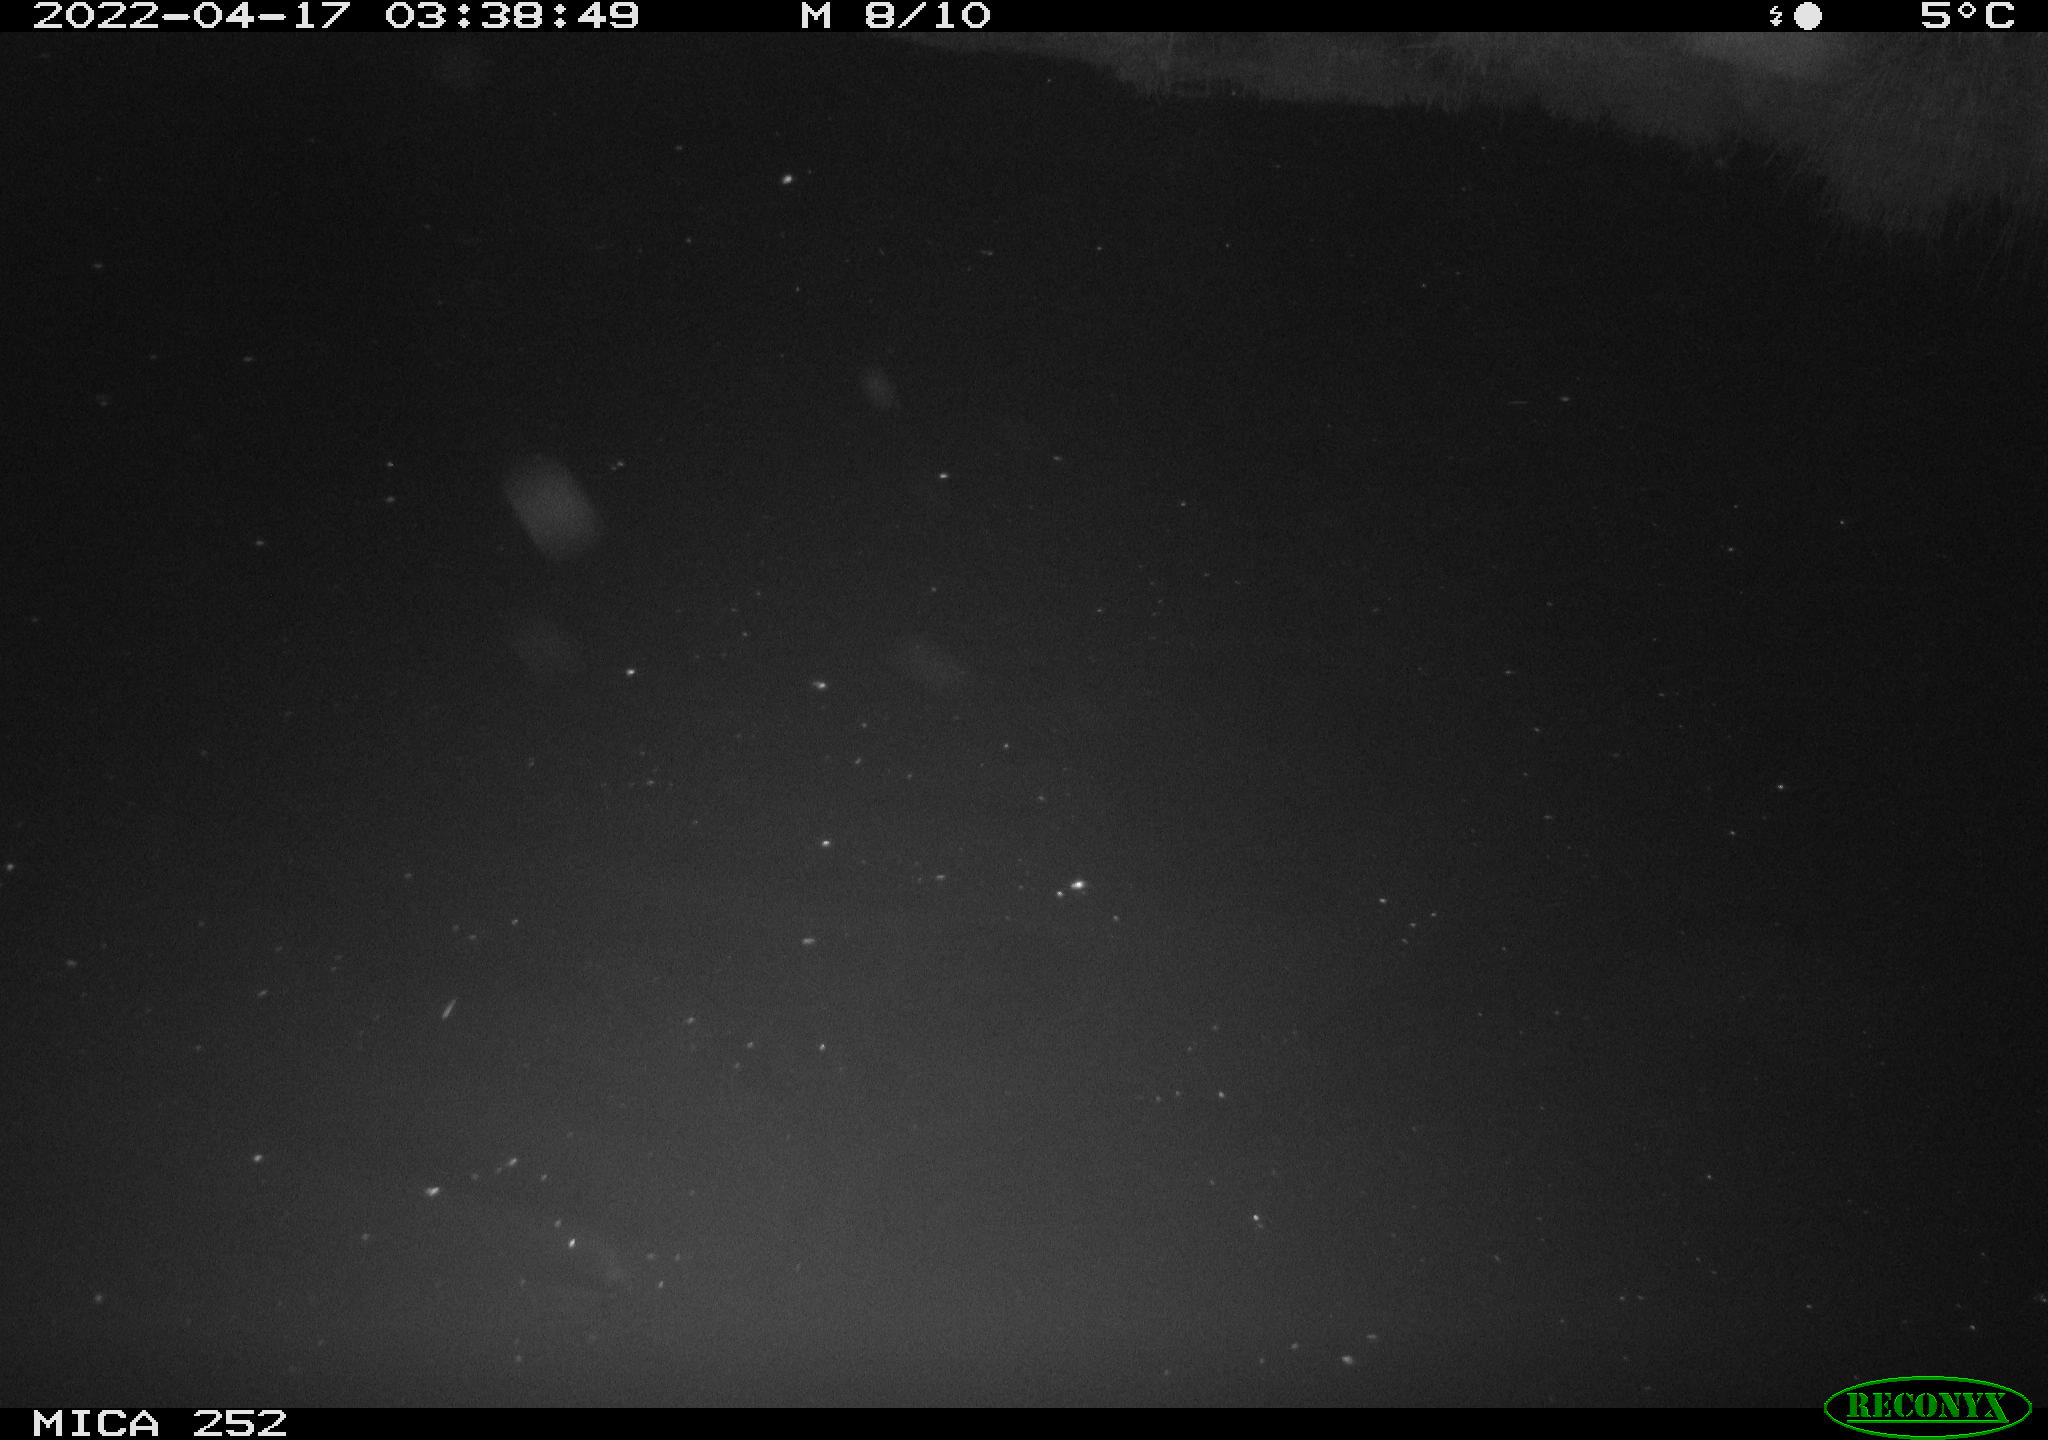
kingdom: Animalia
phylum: Chordata
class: Mammalia
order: Rodentia
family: Castoridae
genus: Castor
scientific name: Castor fiber
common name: Eurasian beaver
